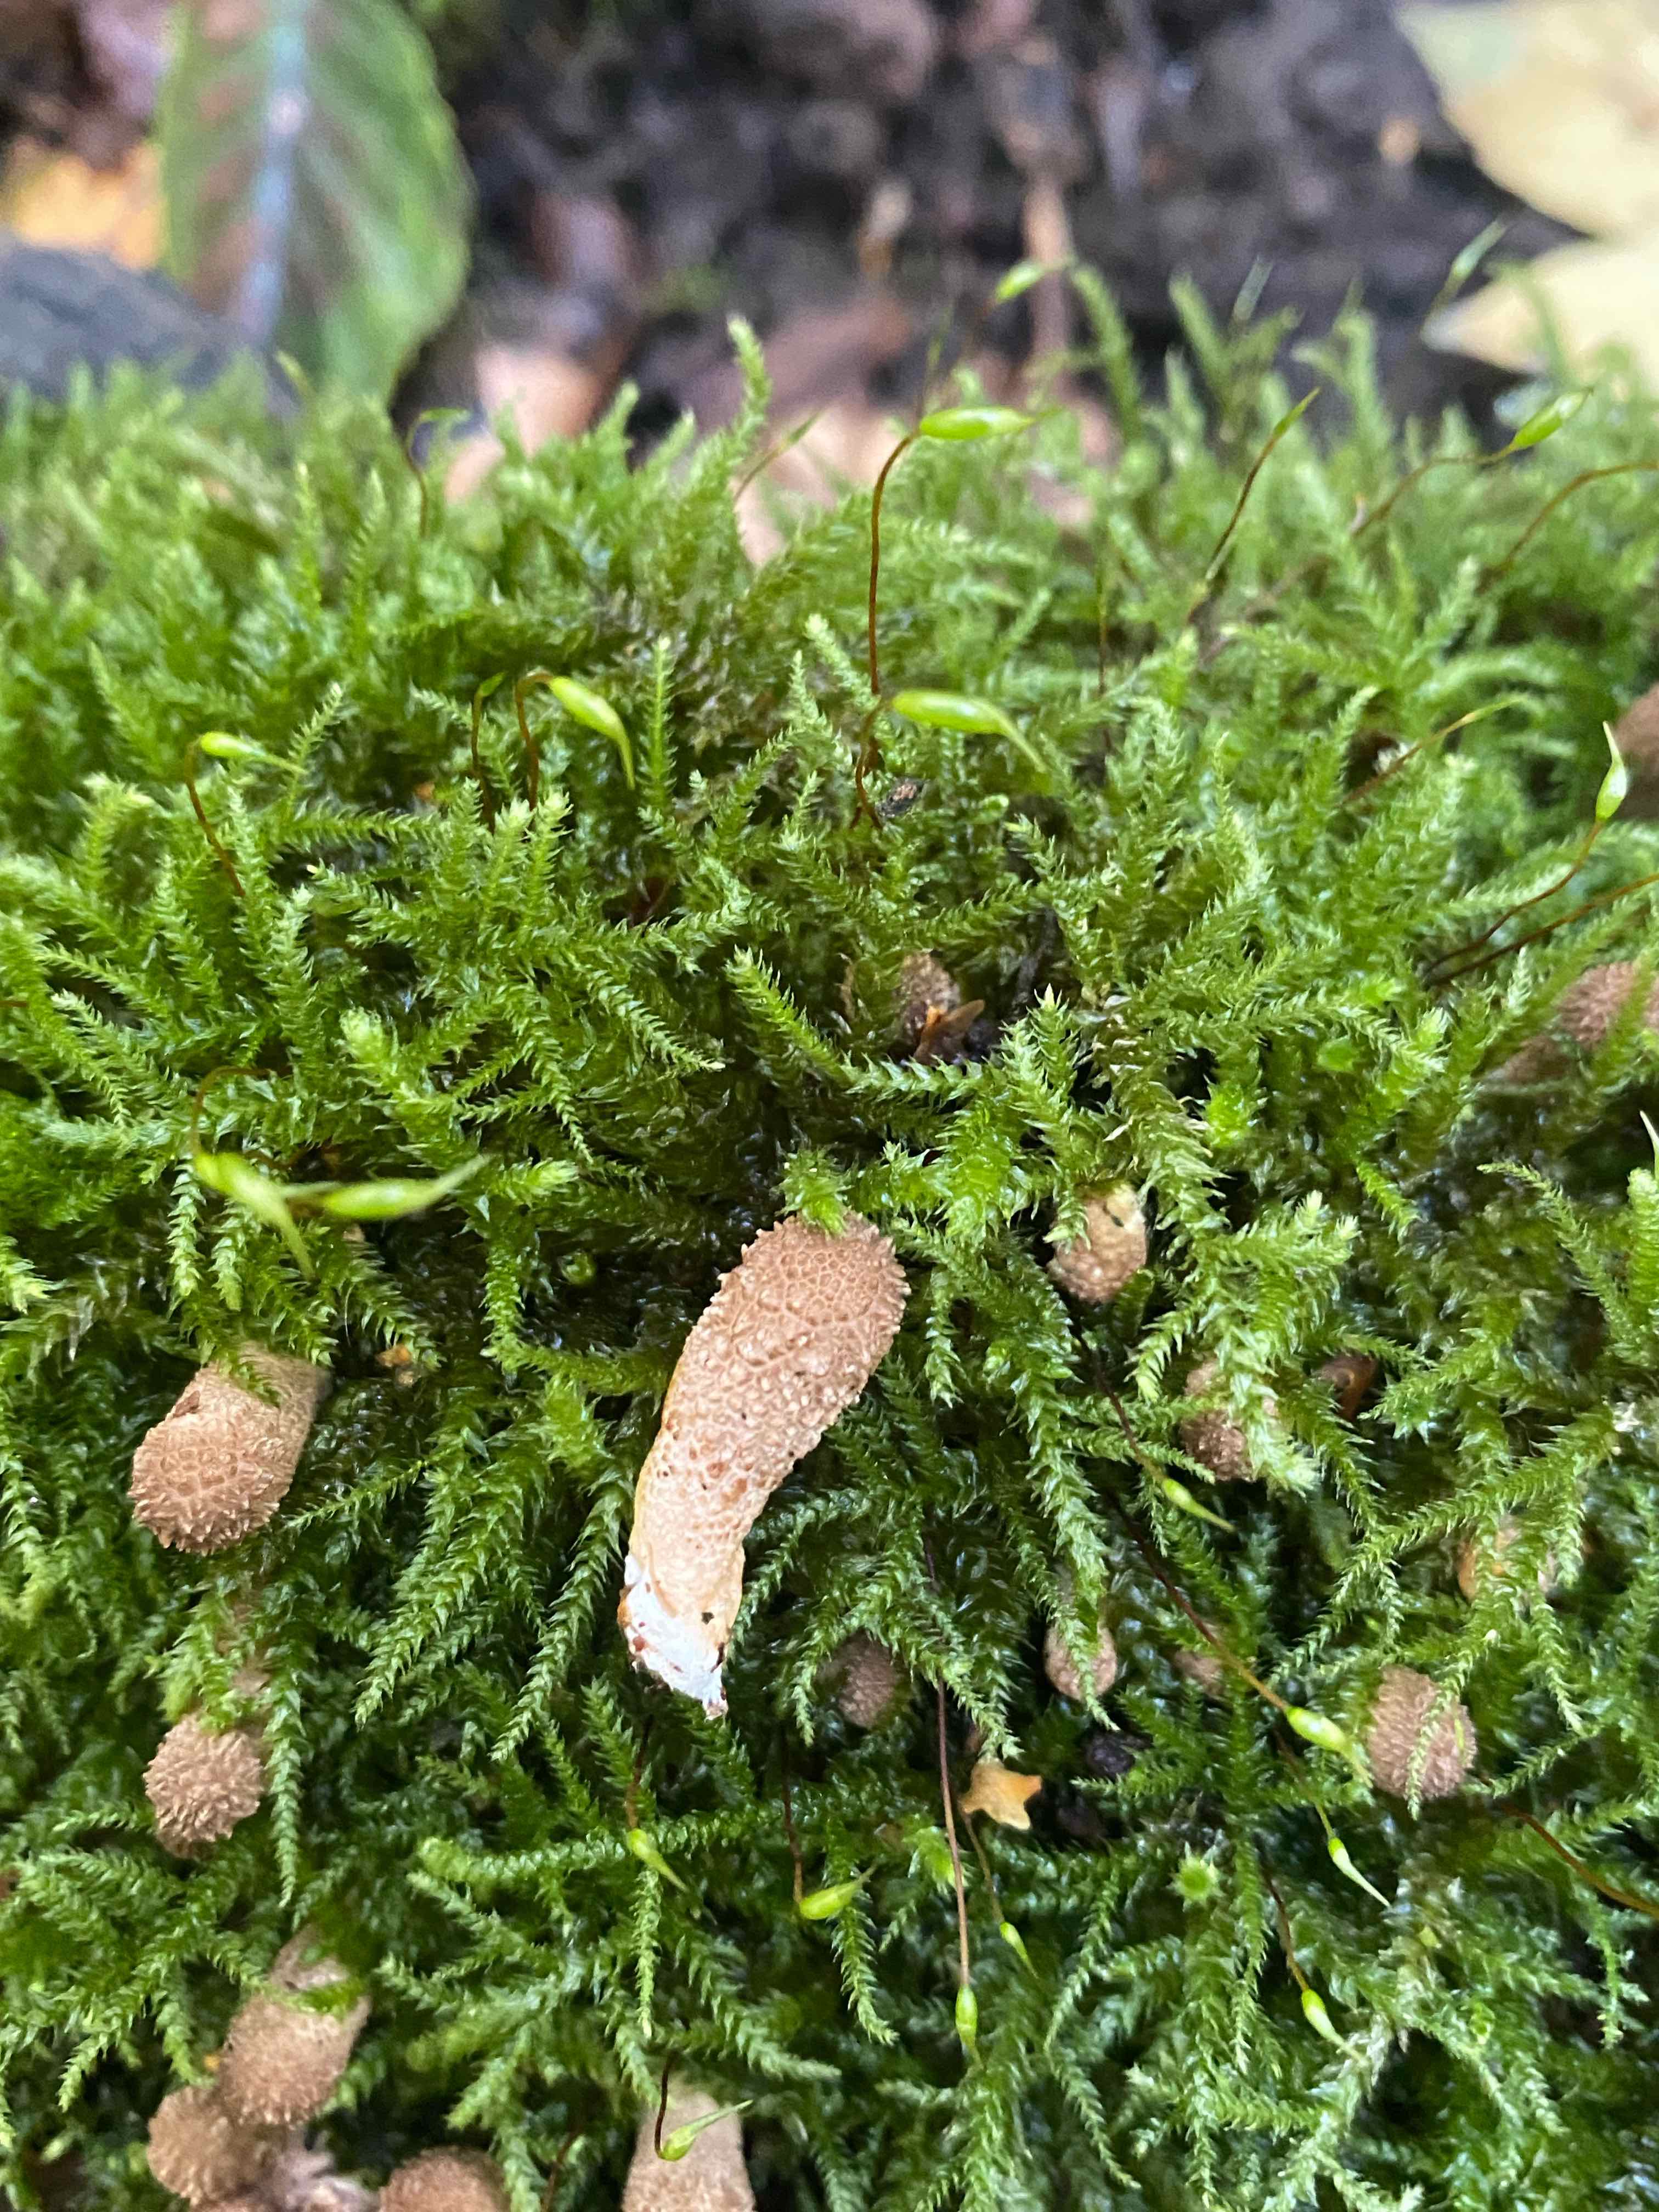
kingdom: Fungi
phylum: Basidiomycota
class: Agaricomycetes
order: Agaricales
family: Lycoperdaceae
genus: Apioperdon
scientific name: Apioperdon pyriforme
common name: pære-støvbold
